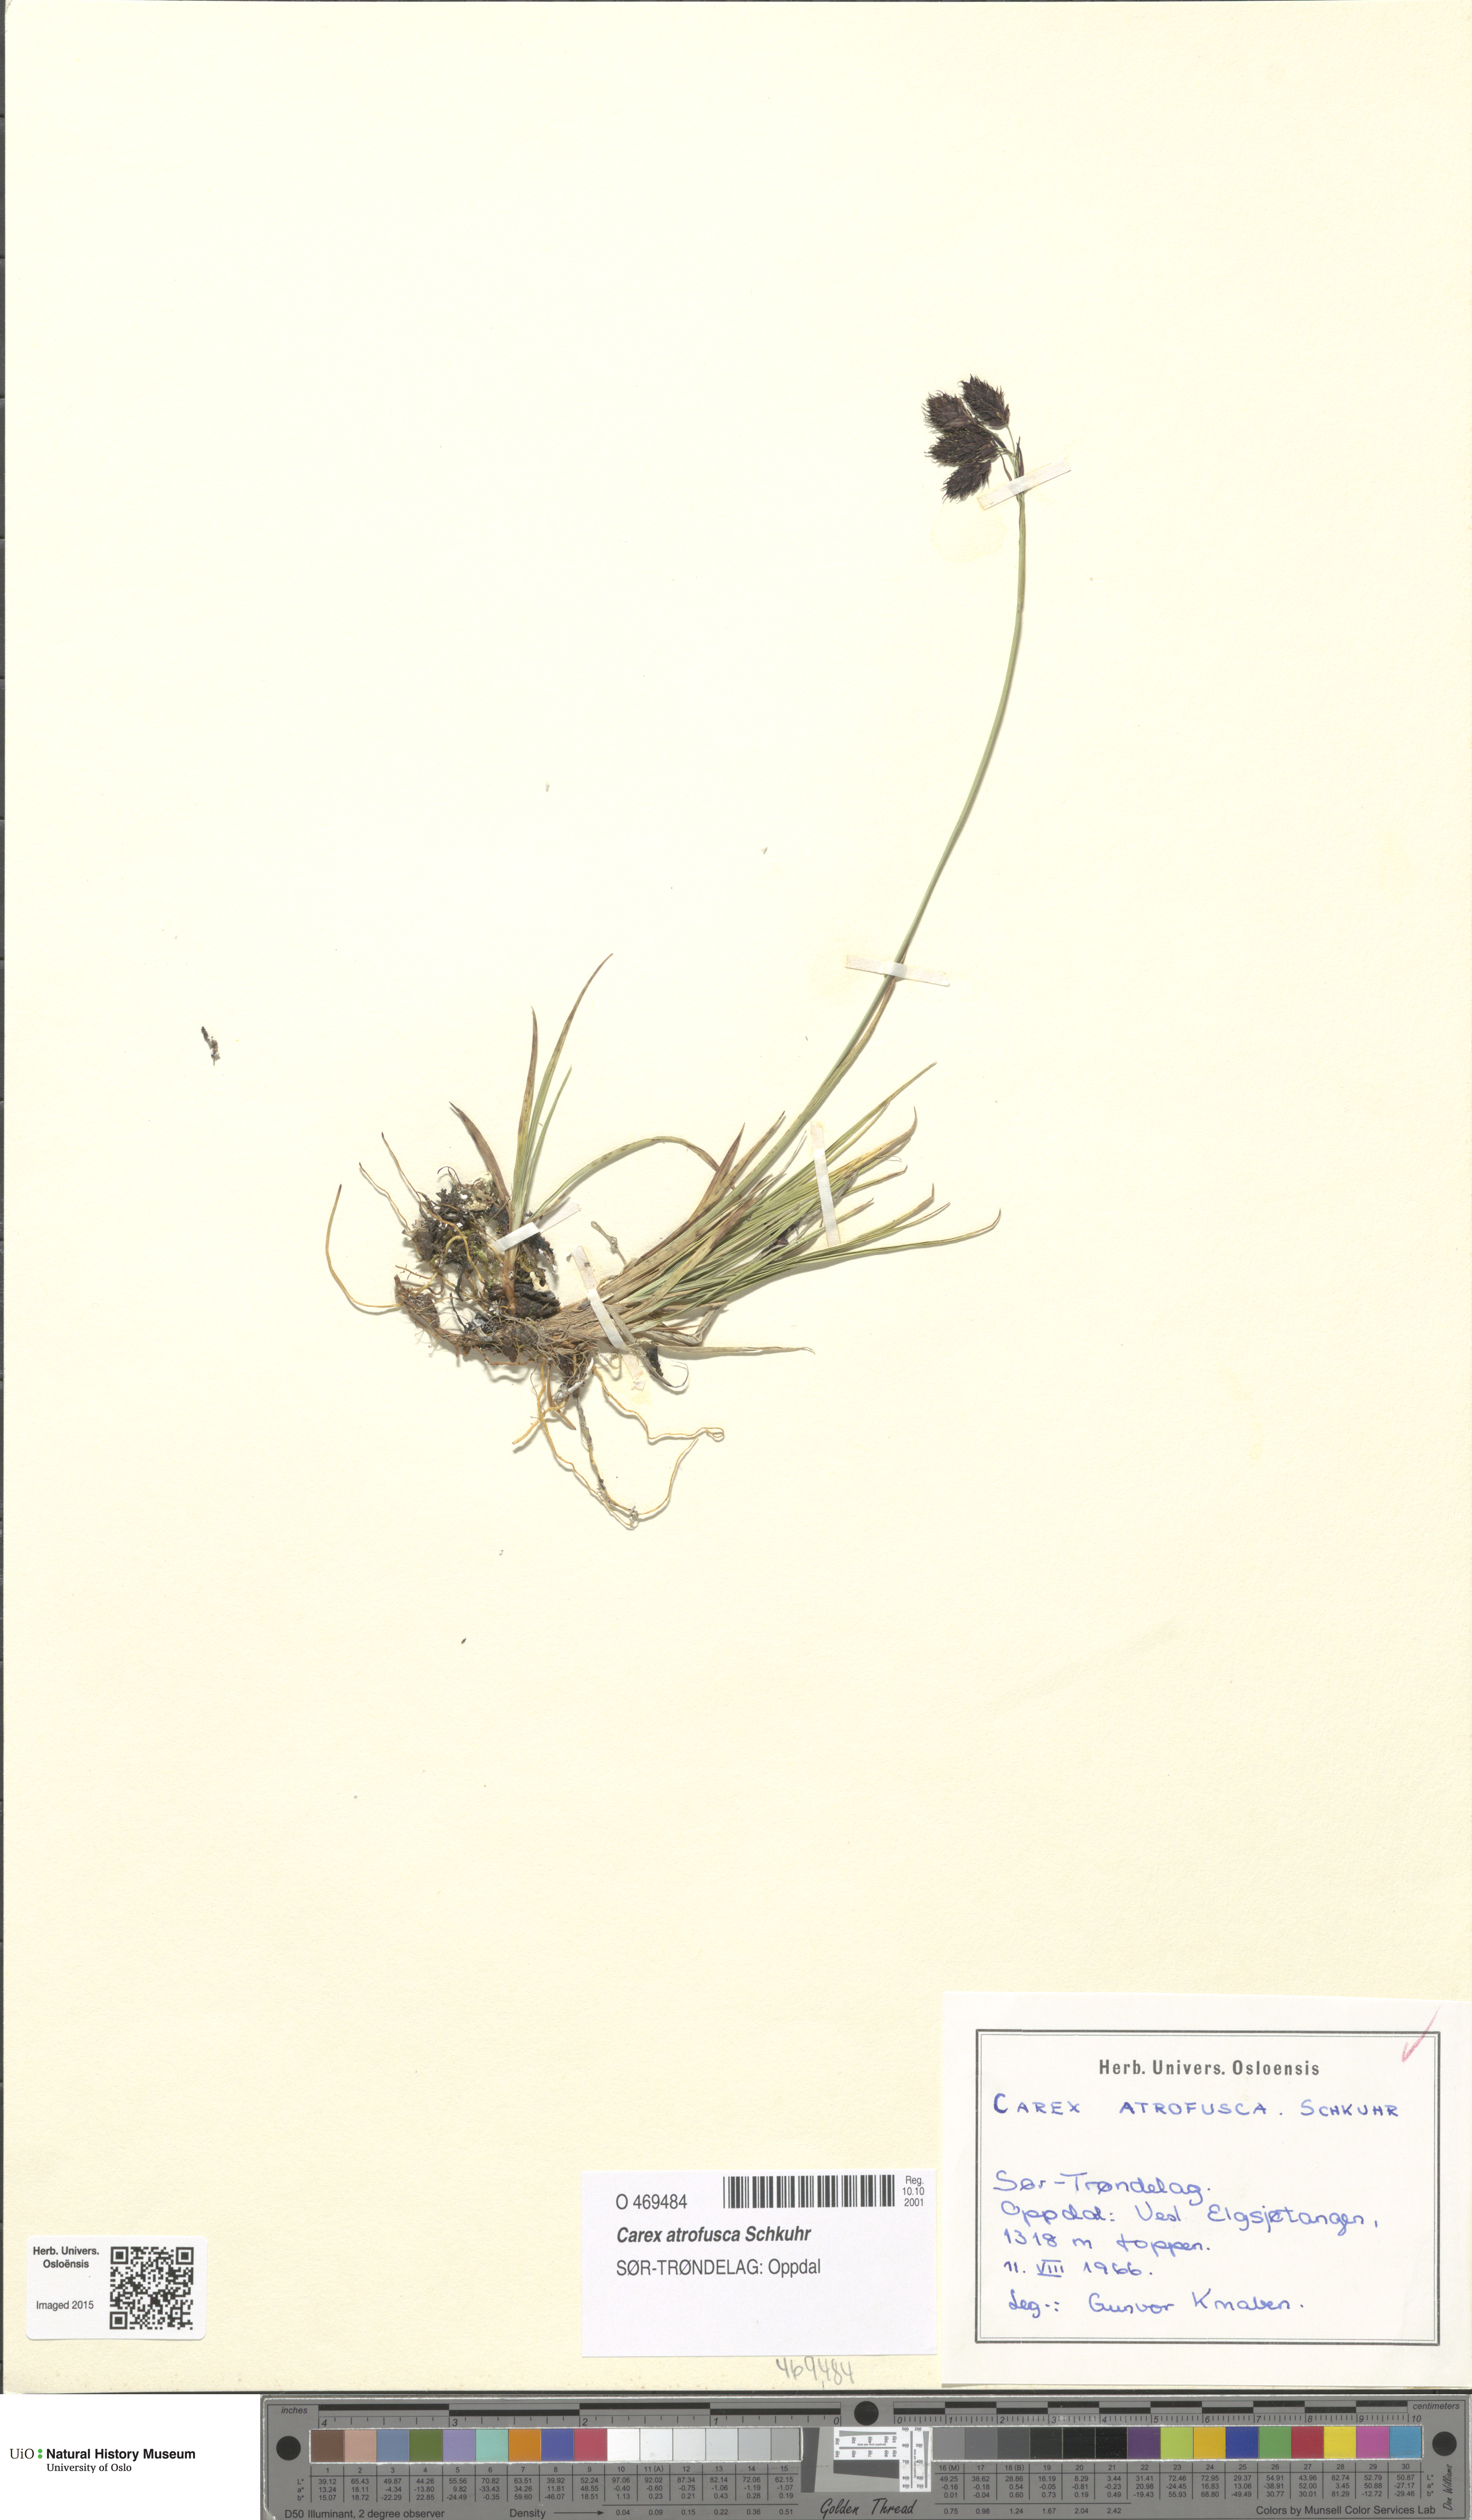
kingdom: Plantae
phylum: Tracheophyta
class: Liliopsida
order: Poales
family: Cyperaceae
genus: Carex
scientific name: Carex atrofusca
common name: Scorched alpine-sedge
